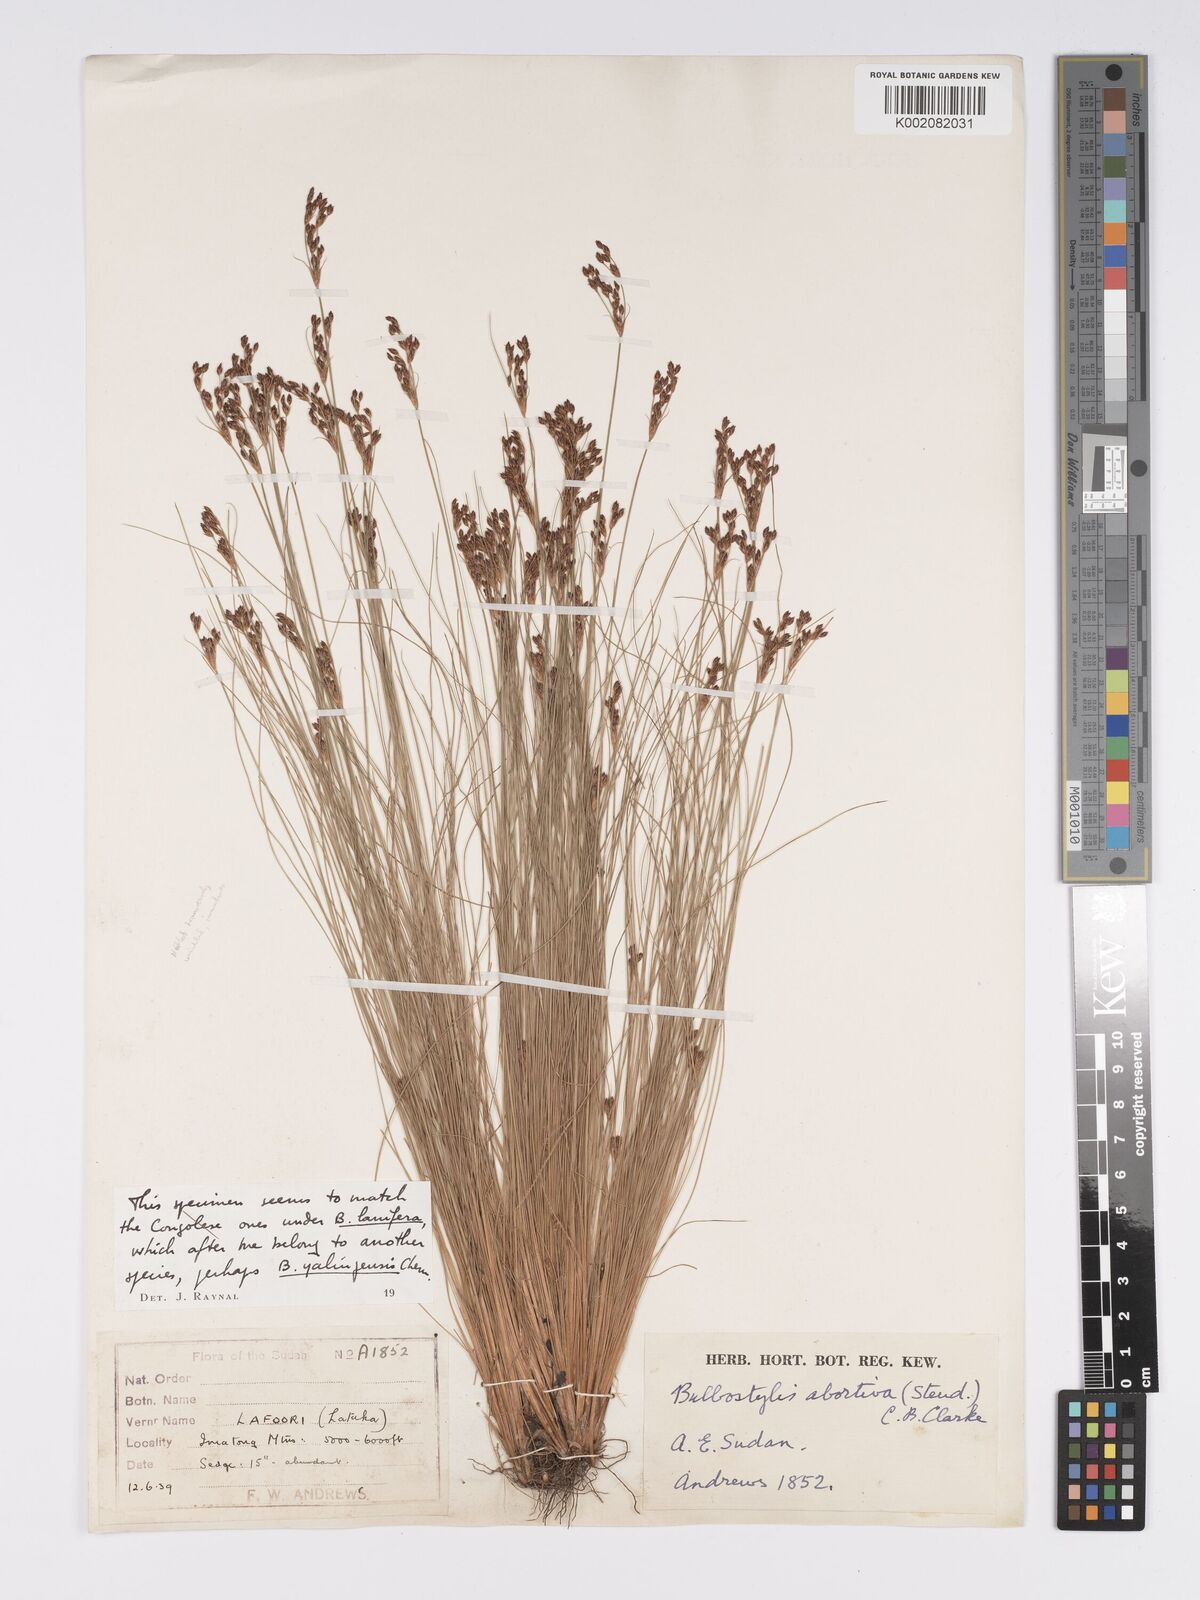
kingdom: Plantae
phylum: Tracheophyta
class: Liliopsida
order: Poales
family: Cyperaceae
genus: Bulbostylis
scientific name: Bulbostylis pusilla
